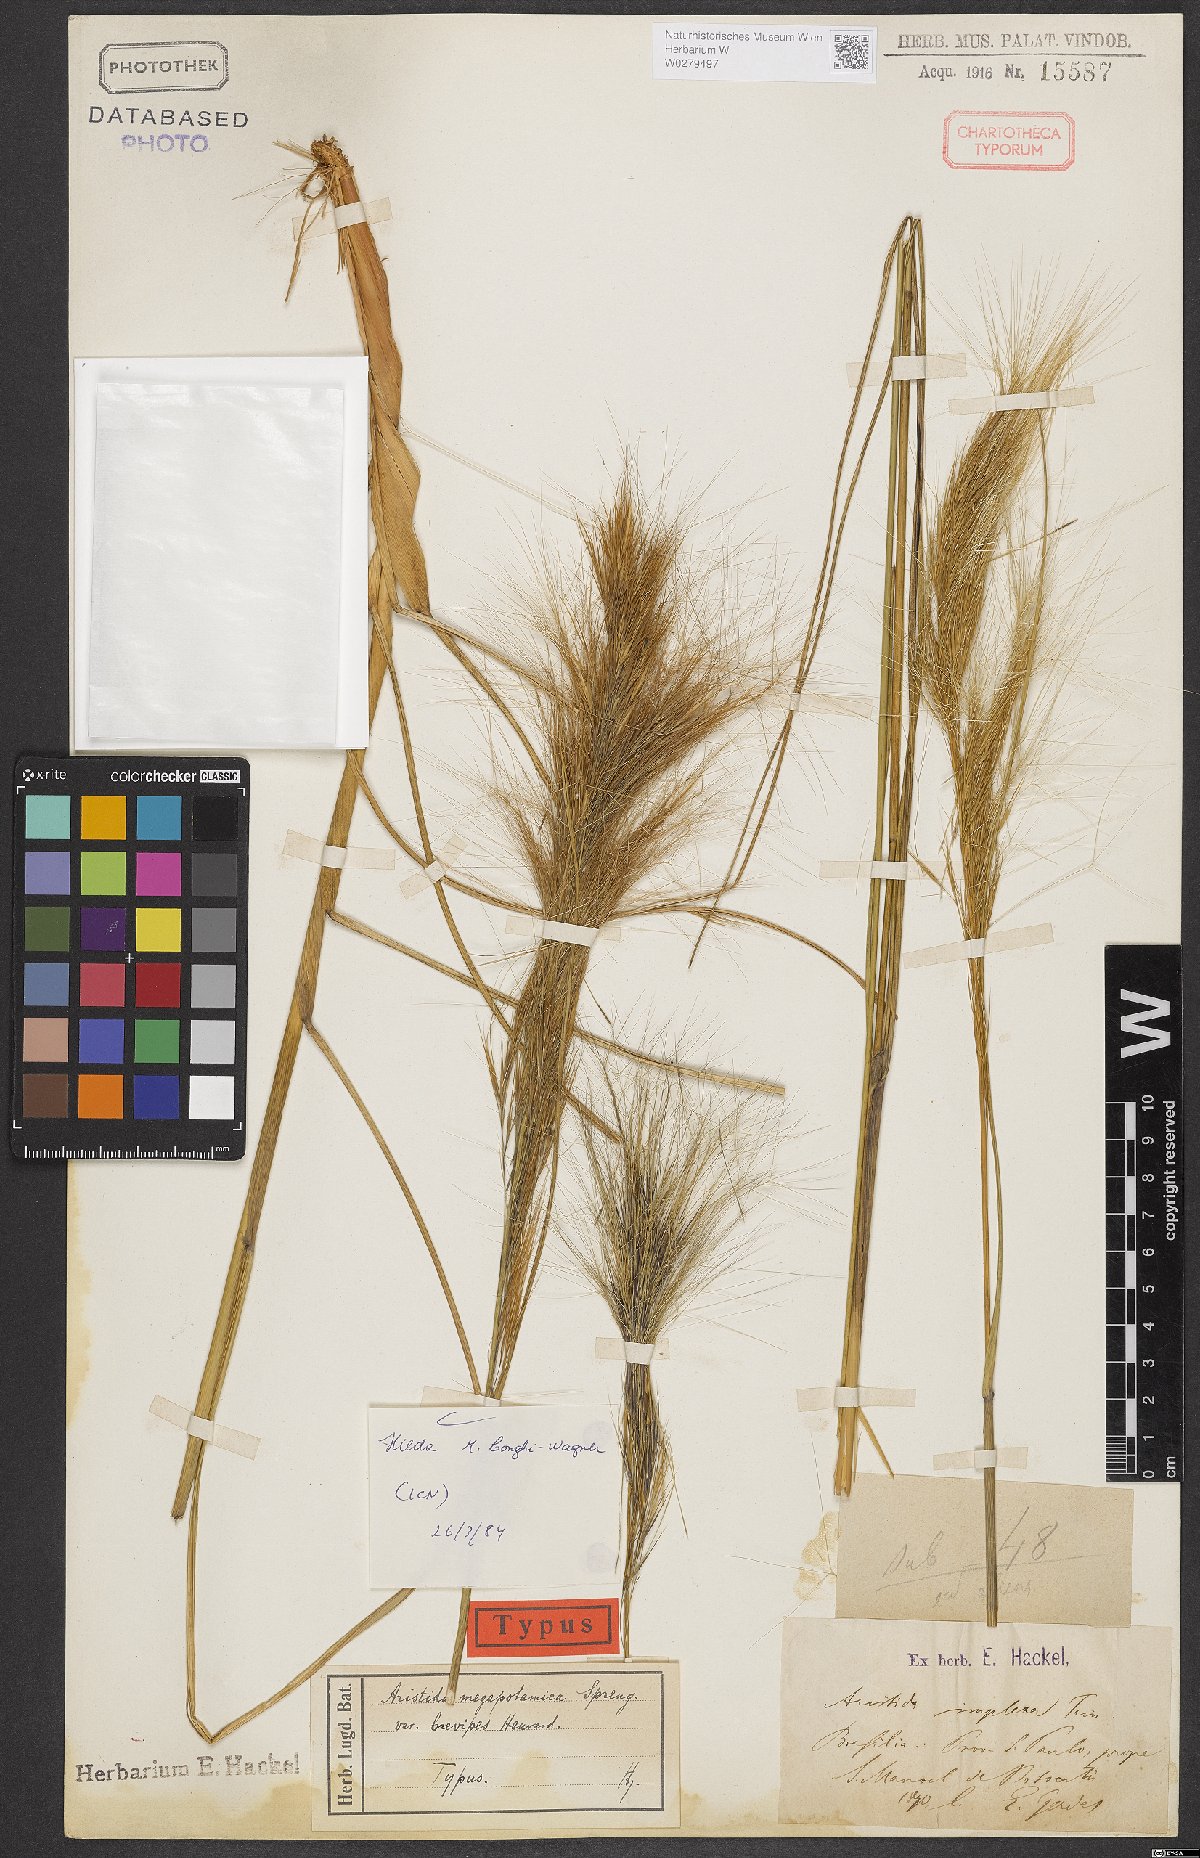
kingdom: Plantae
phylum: Tracheophyta
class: Liliopsida
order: Poales
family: Poaceae
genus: Aristida
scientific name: Aristida megapotamica
